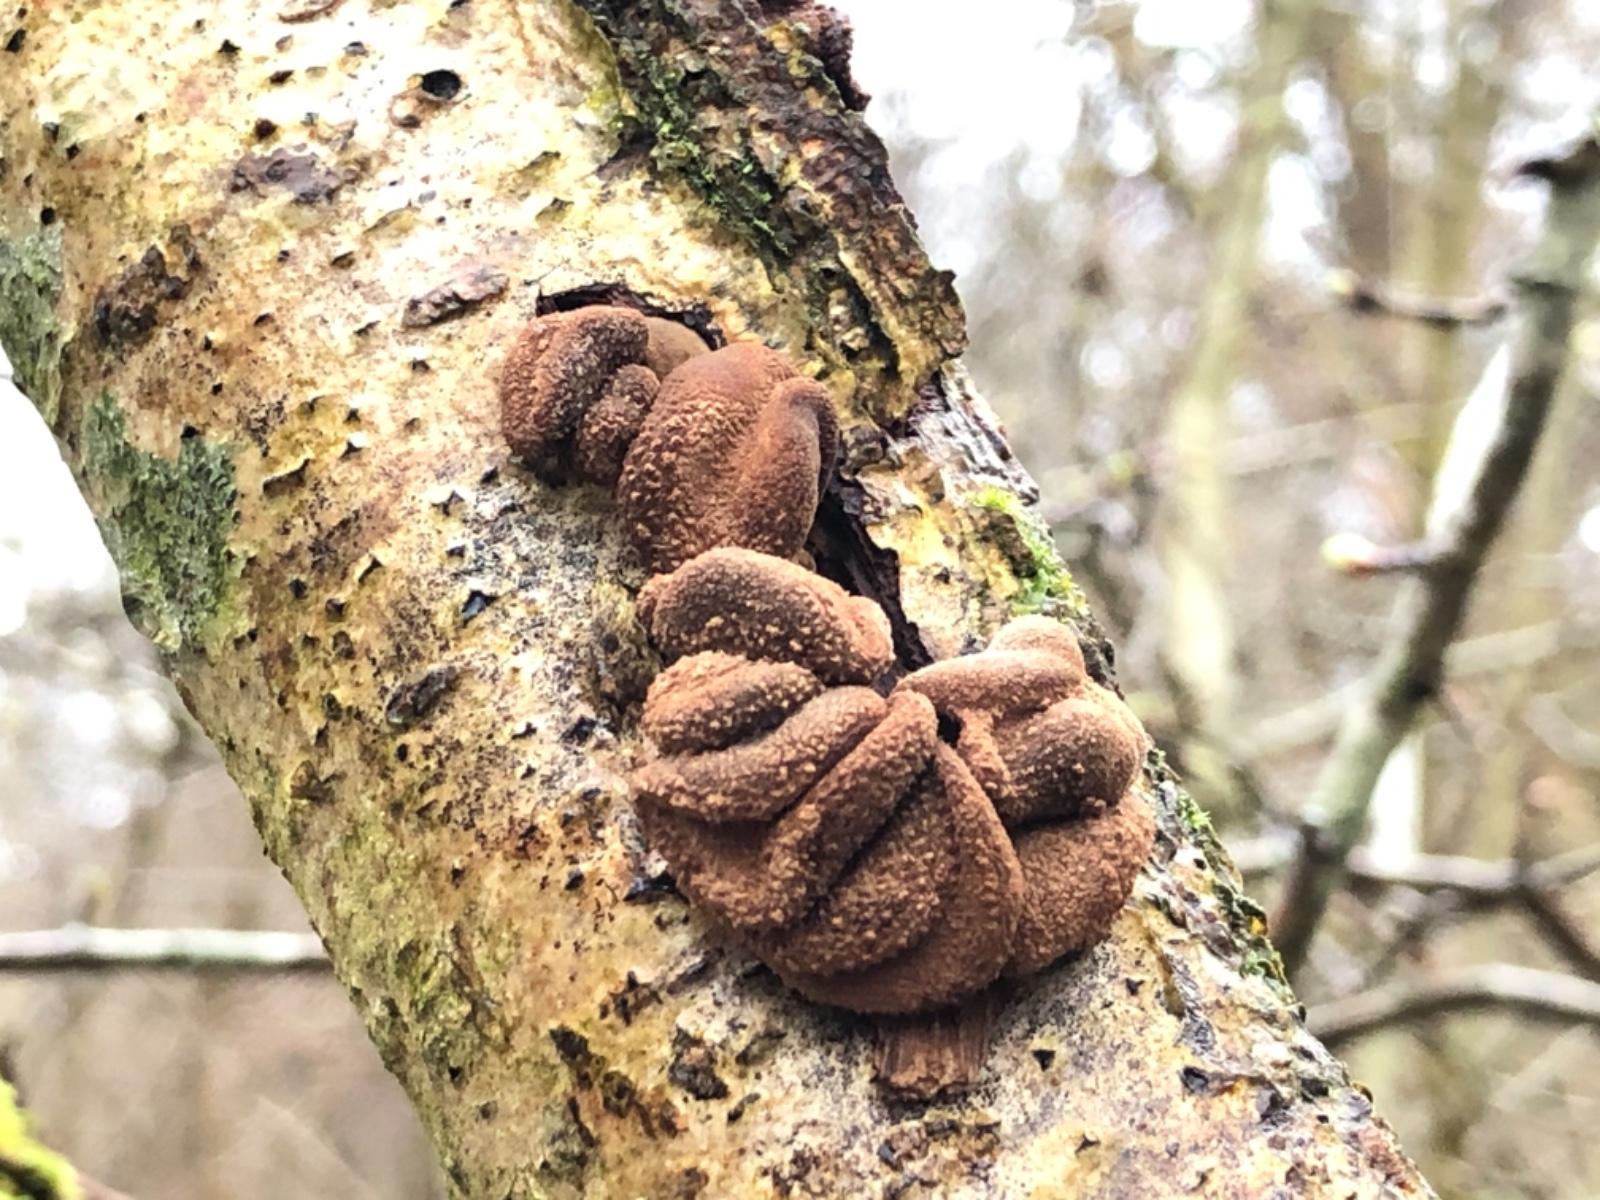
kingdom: Fungi
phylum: Ascomycota
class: Leotiomycetes
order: Helotiales
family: Cenangiaceae
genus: Encoelia
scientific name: Encoelia furfuracea
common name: hassel-læderskive
